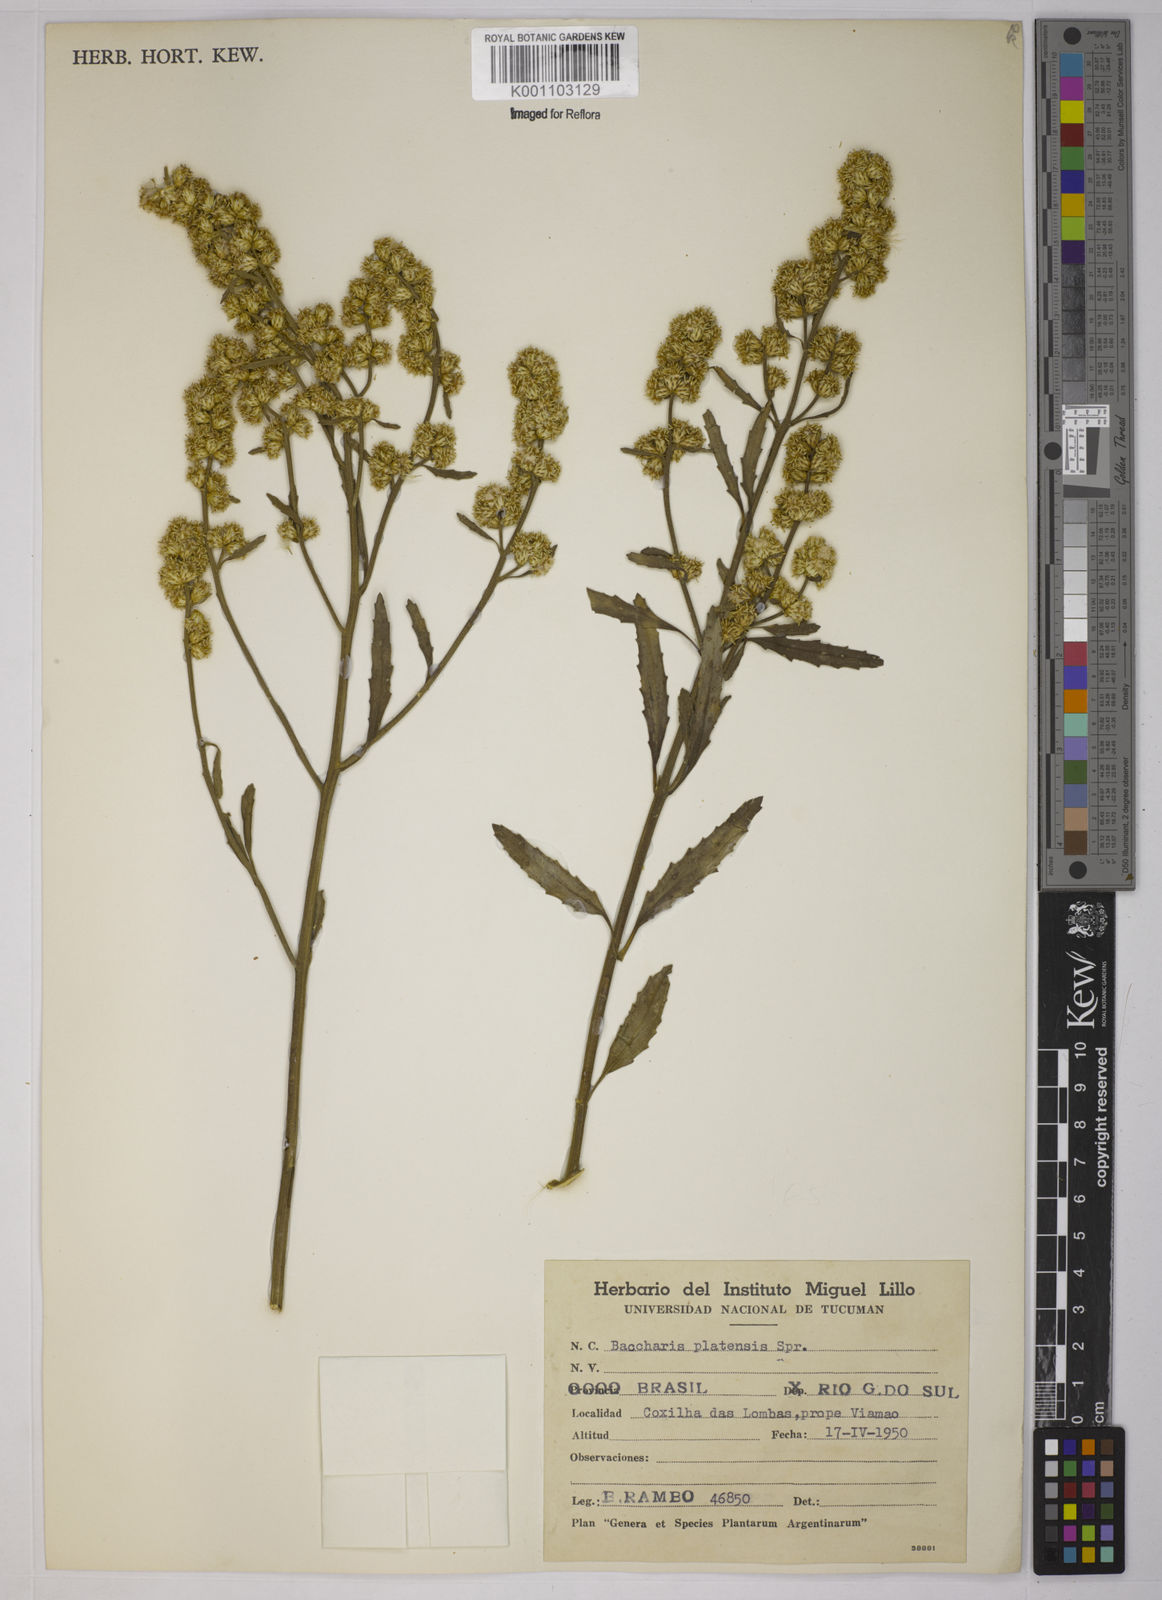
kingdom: Plantae
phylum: Tracheophyta
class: Magnoliopsida
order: Asterales
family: Asteraceae
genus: Baccharis
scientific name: Baccharis hieronymi
